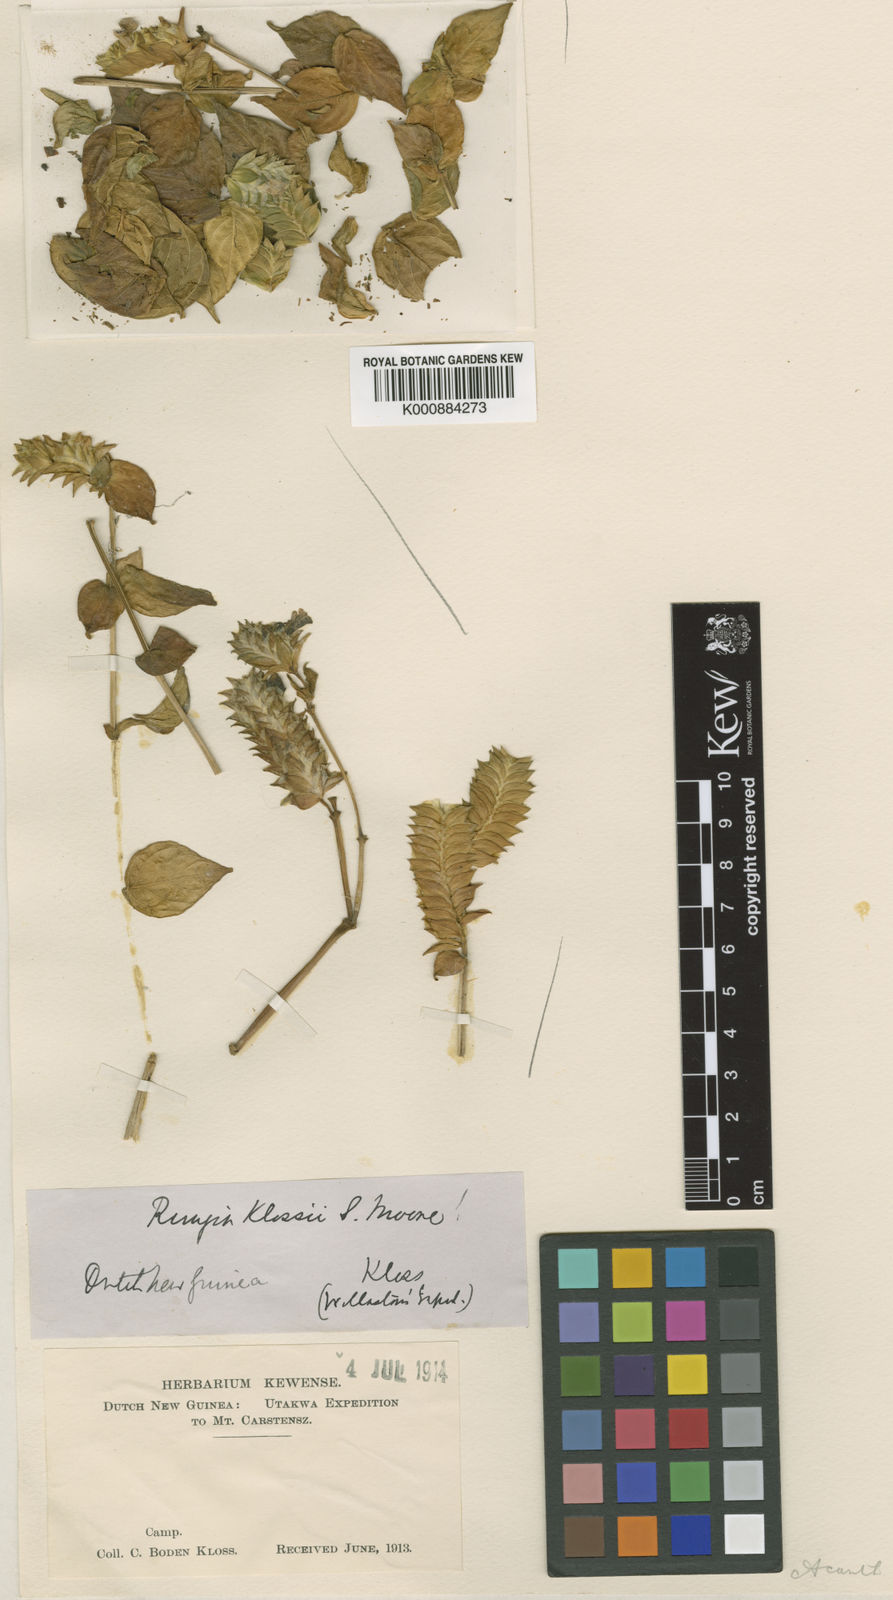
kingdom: Plantae
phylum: Tracheophyta
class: Magnoliopsida
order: Lamiales
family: Acanthaceae
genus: Rungia
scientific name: Rungia klossii
